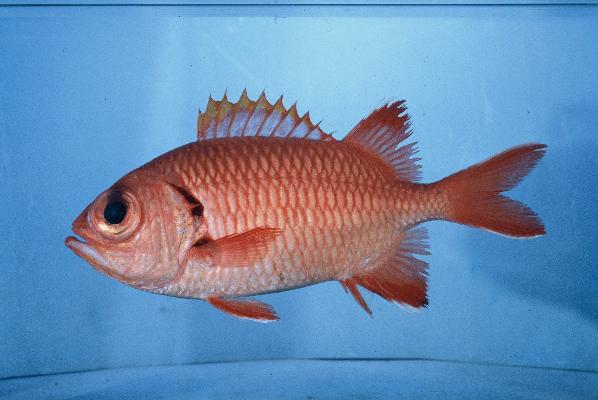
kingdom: Animalia
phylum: Chordata
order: Beryciformes
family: Holocentridae
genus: Myripristis
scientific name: Myripristis berndti
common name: Bigscale soldierfish
